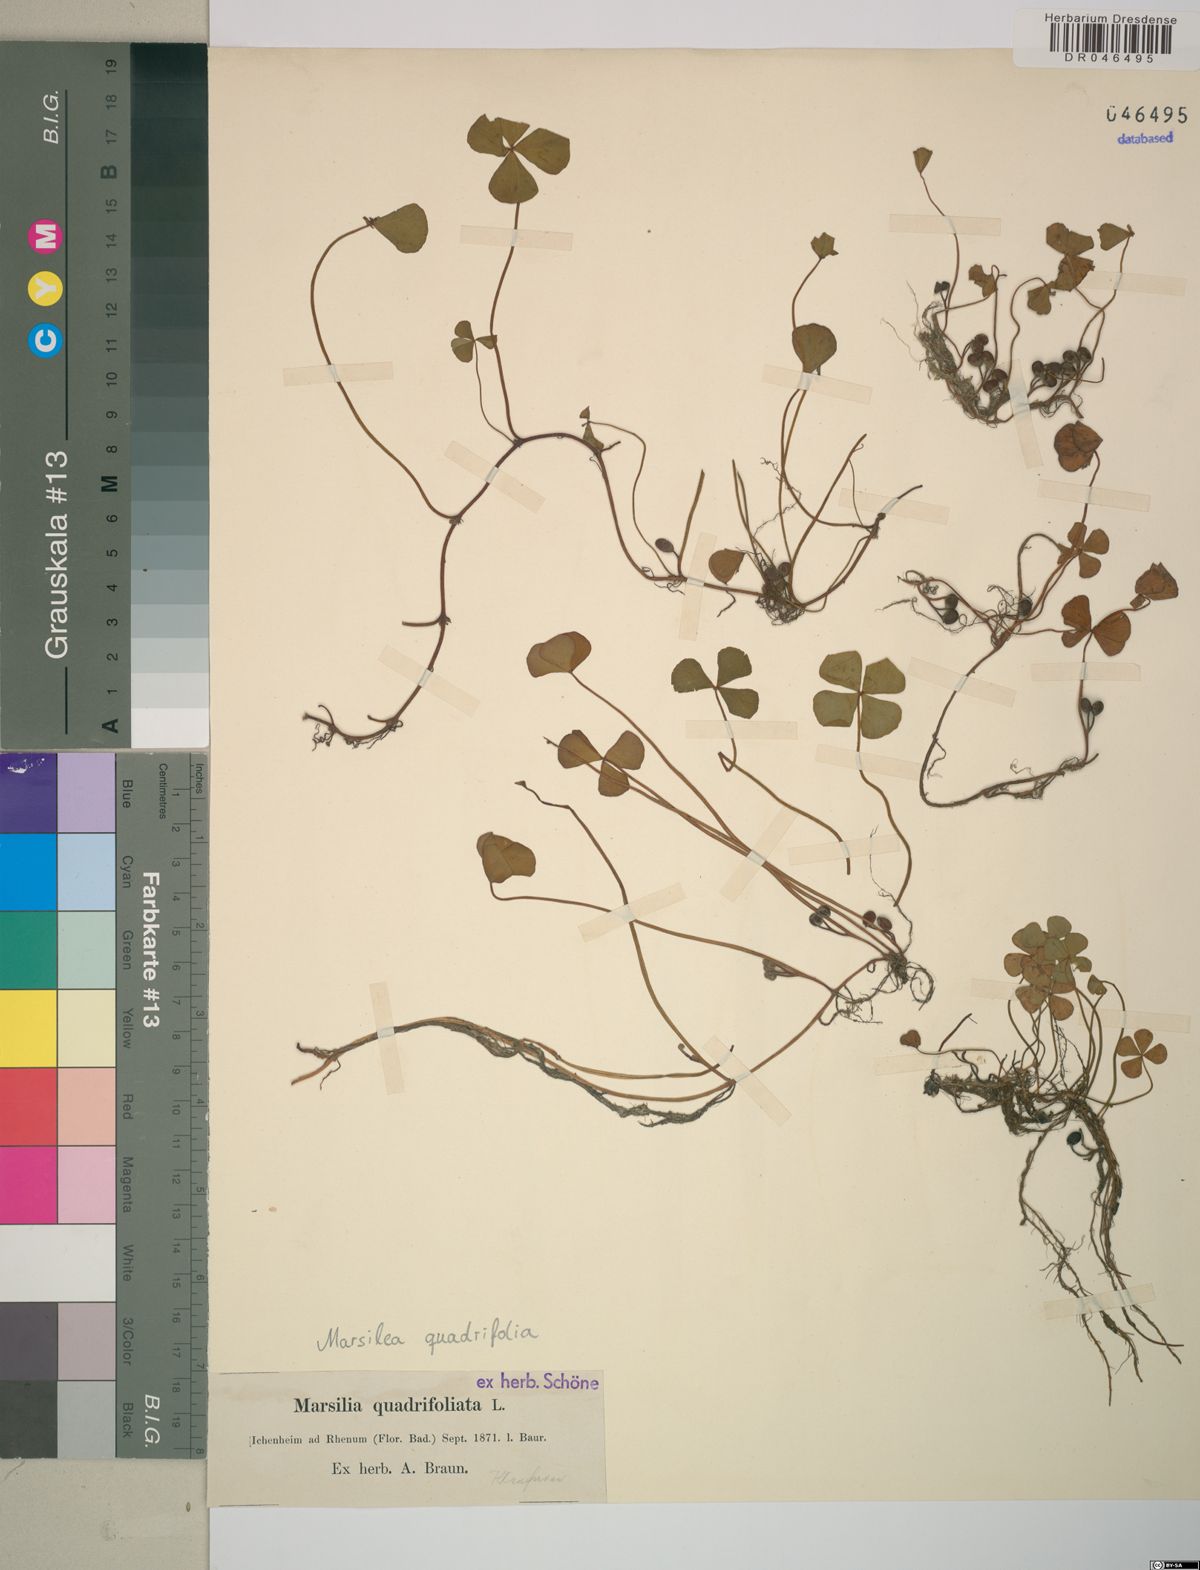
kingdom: Plantae
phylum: Tracheophyta
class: Polypodiopsida
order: Salviniales
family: Marsileaceae
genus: Marsilea
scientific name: Marsilea quadrifolia
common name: Water shamrock
